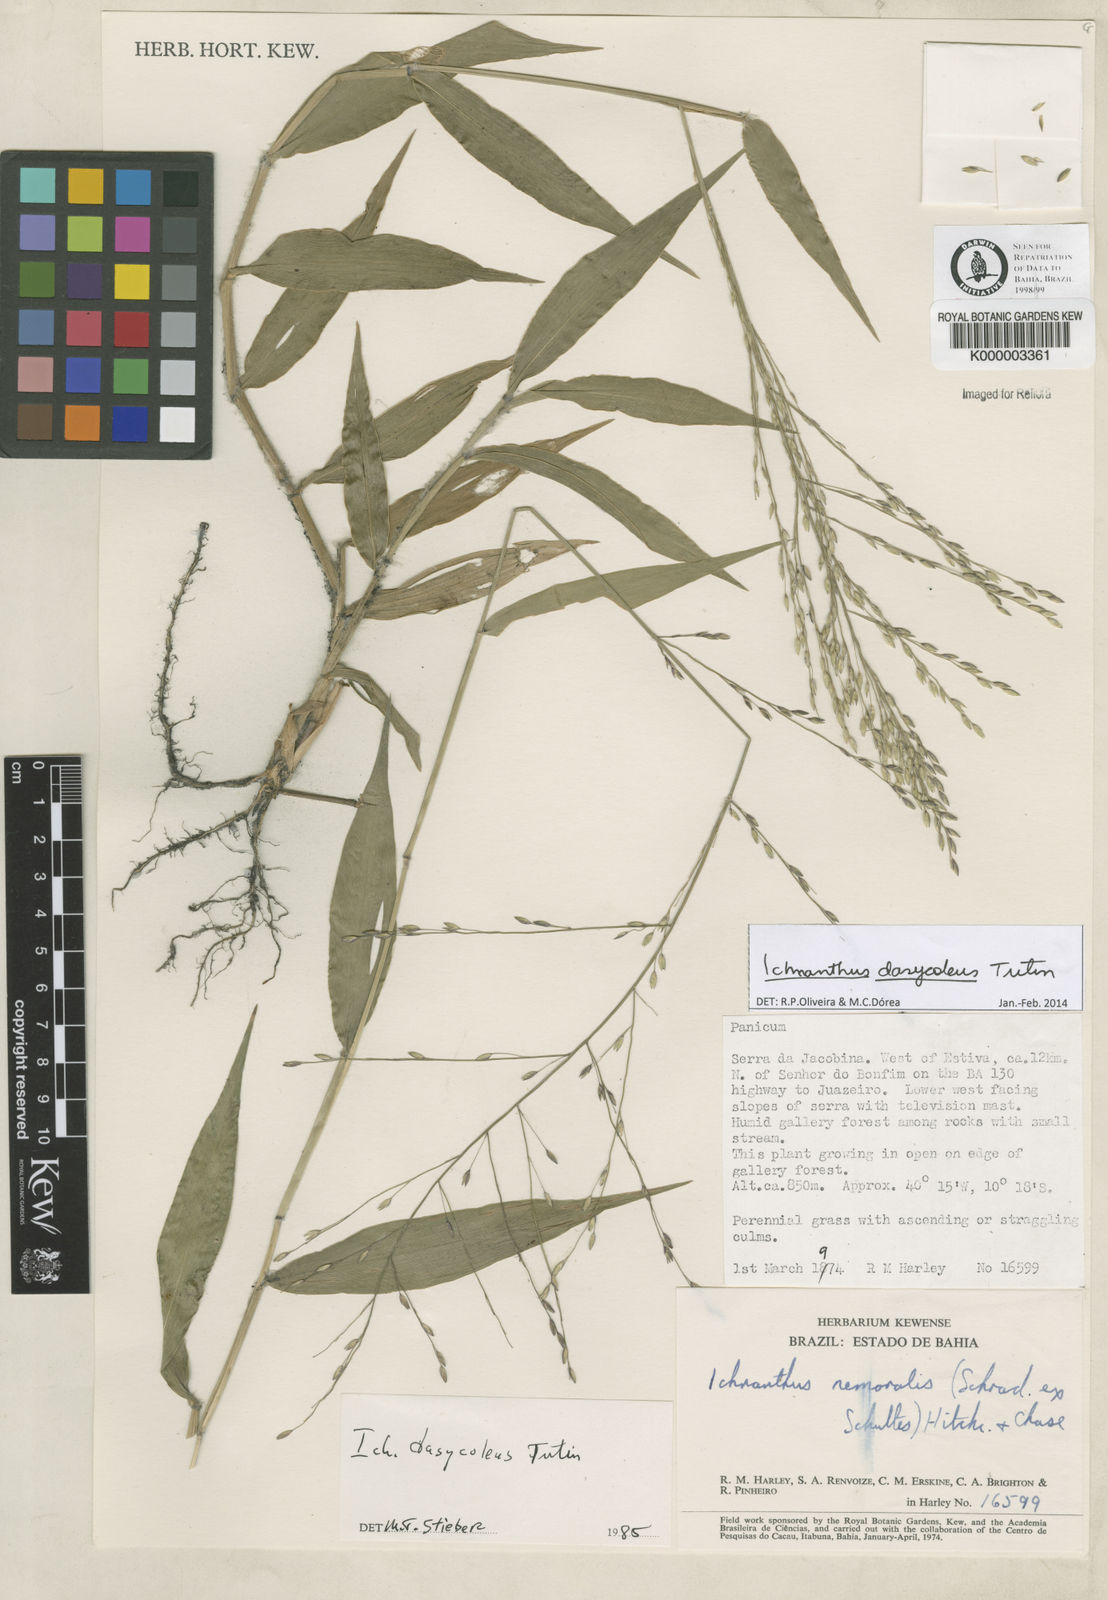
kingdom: Plantae
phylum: Tracheophyta
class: Liliopsida
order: Poales
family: Poaceae
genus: Ichnanthus
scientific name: Ichnanthus dasycoleus
